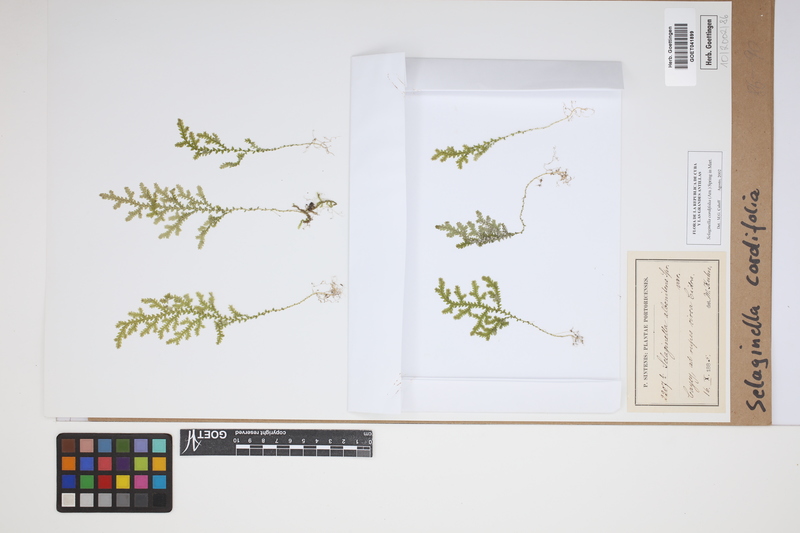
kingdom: Plantae
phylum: Tracheophyta
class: Lycopodiopsida
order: Selaginellales
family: Selaginellaceae
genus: Selaginella
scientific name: Selaginella cordifolia
